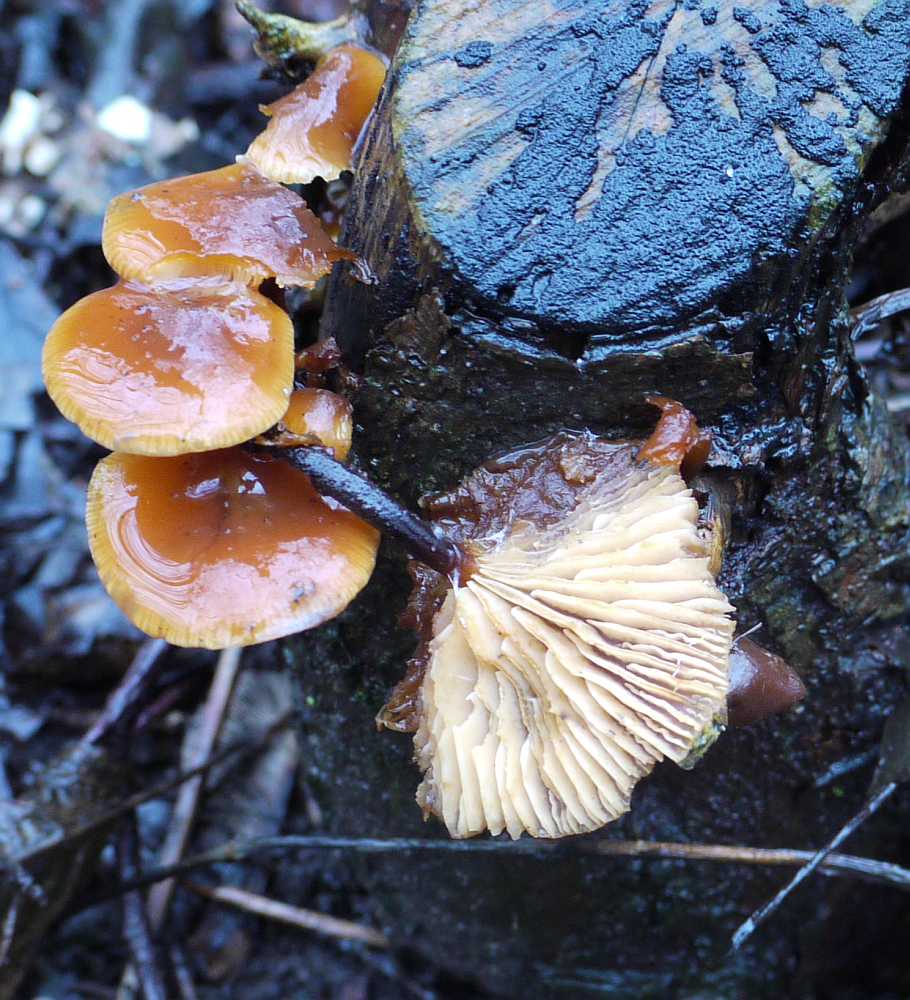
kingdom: Fungi
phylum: Basidiomycota
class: Agaricomycetes
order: Agaricales
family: Physalacriaceae
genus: Flammulina
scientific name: Flammulina velutipes
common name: gul fløjlsfod
